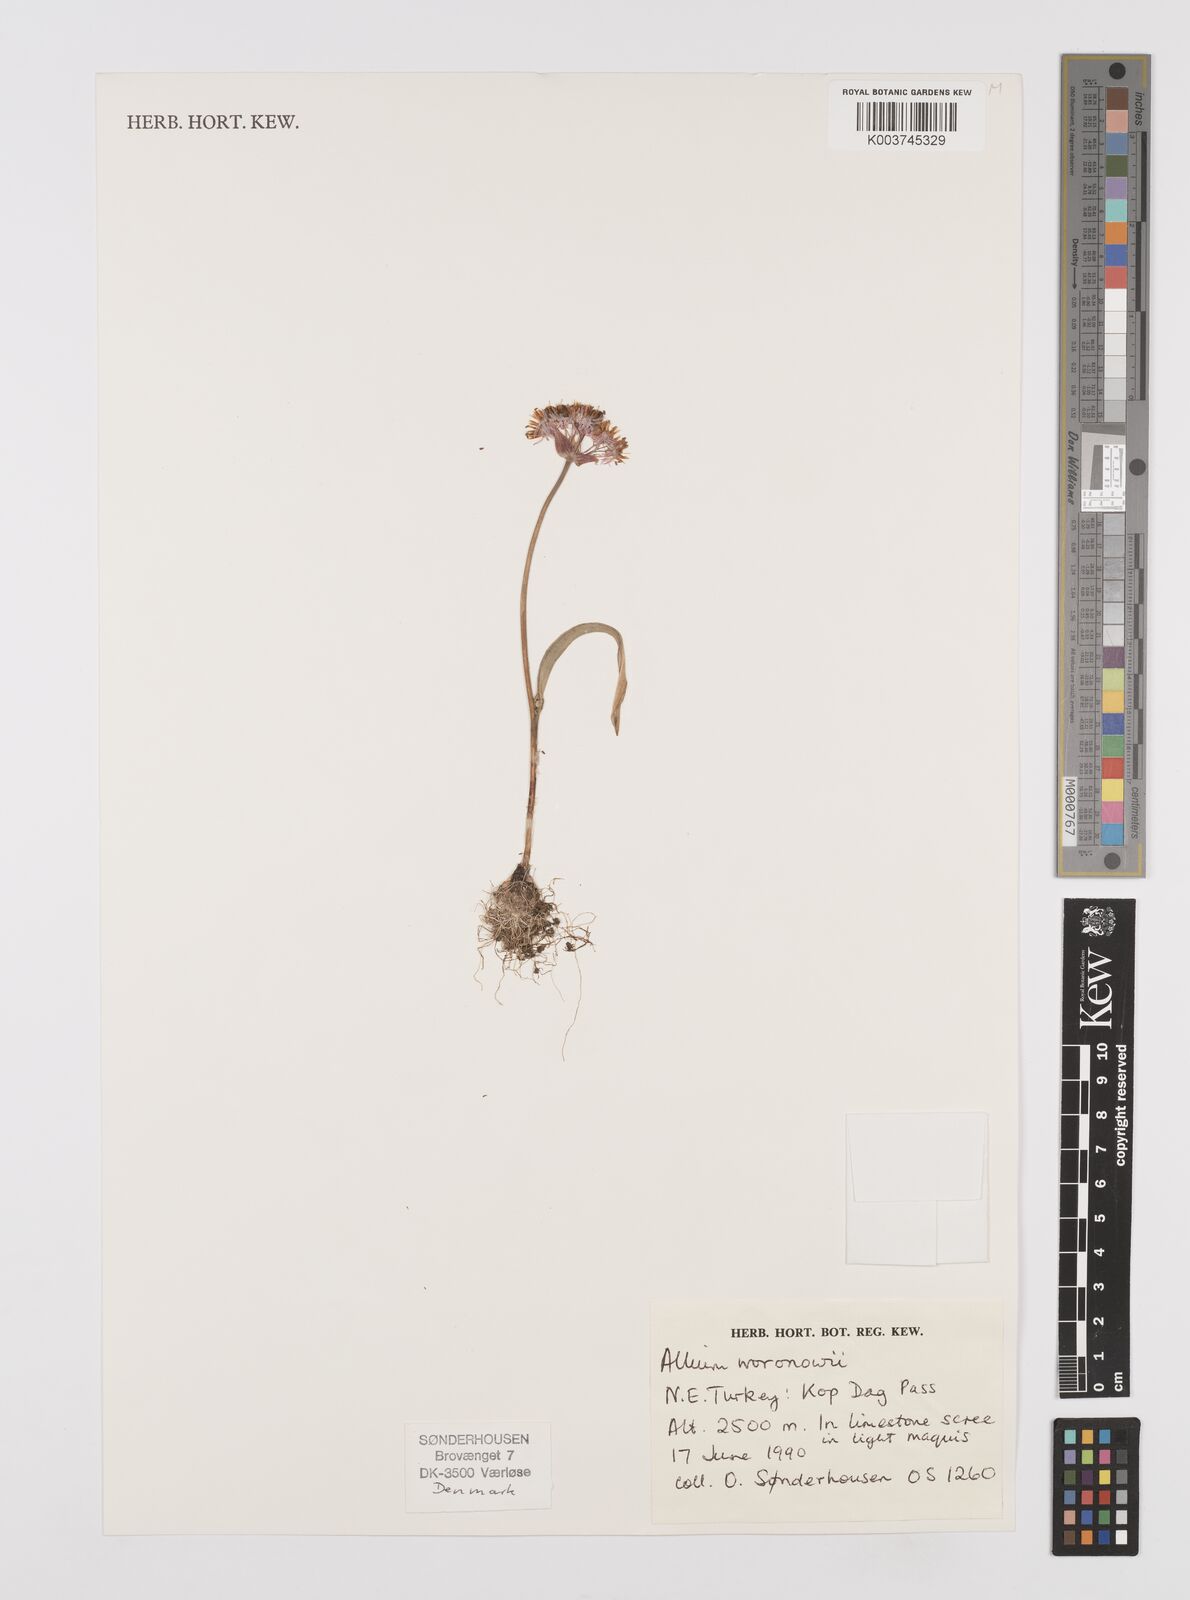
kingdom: Plantae
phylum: Tracheophyta
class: Liliopsida
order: Asparagales
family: Amaryllidaceae
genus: Allium
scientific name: Allium woronowii
